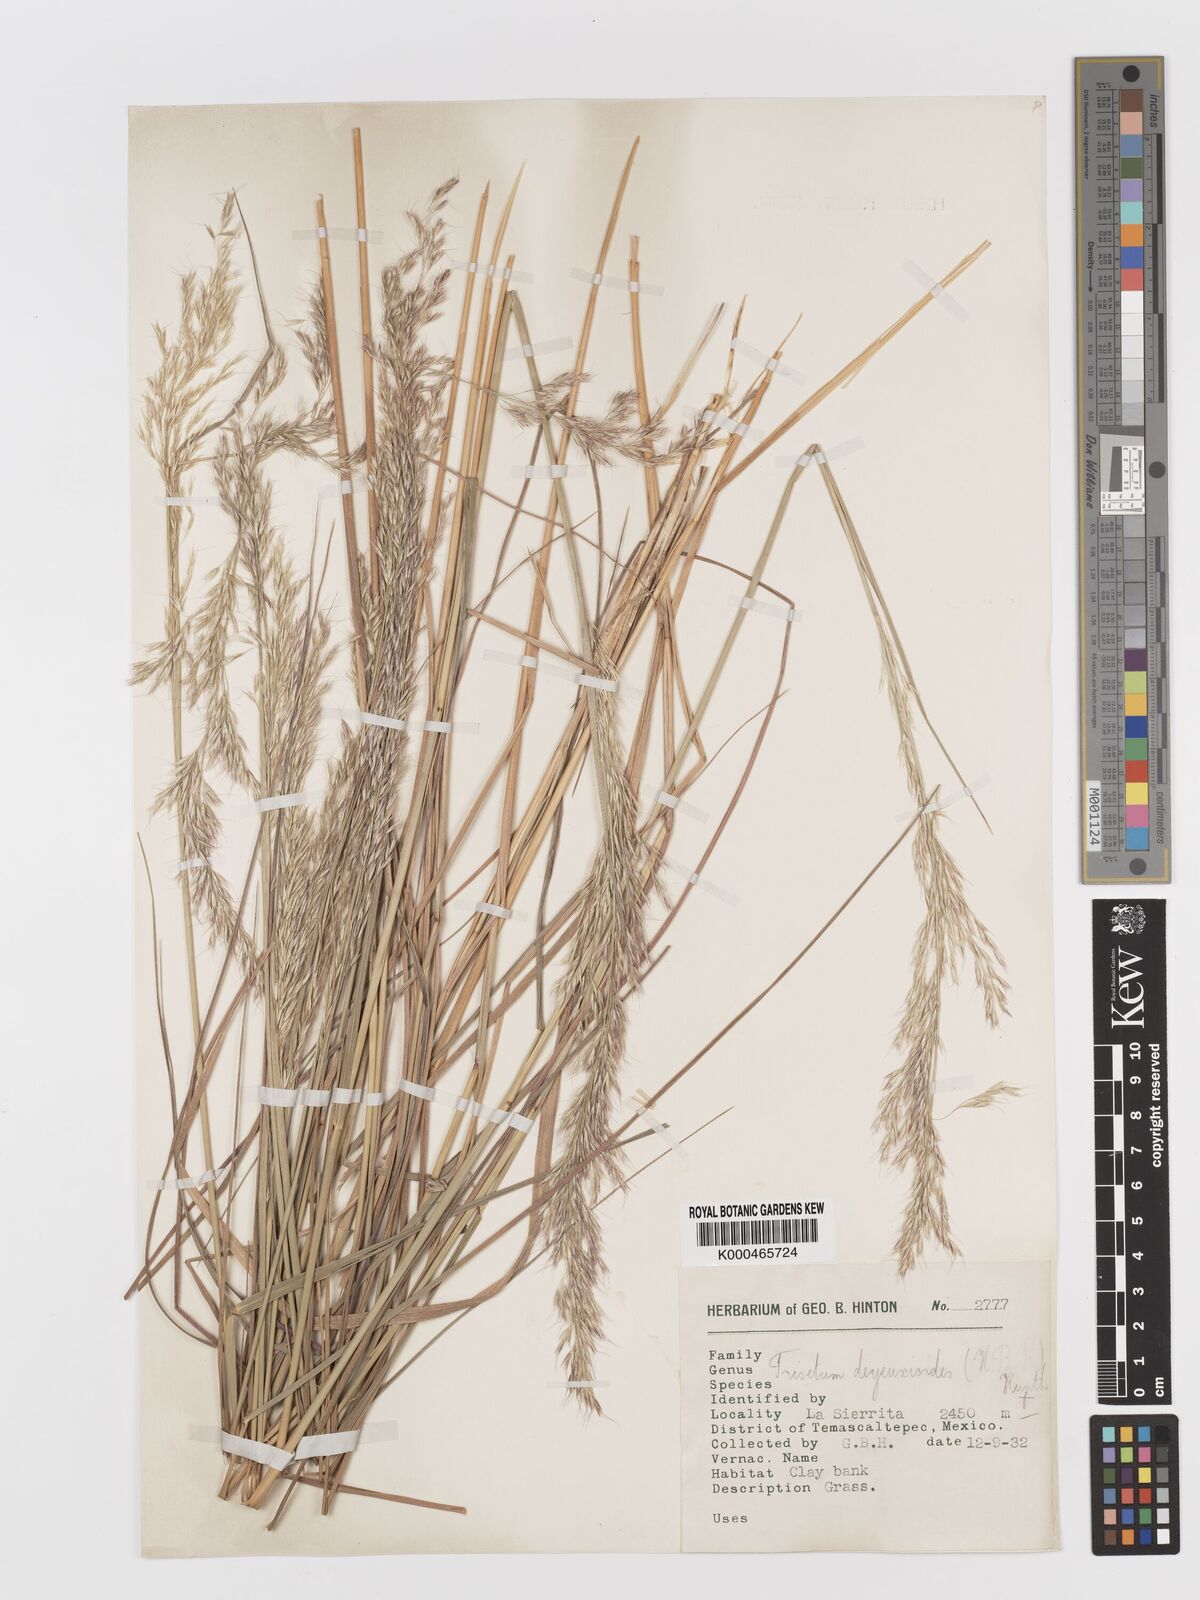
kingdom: Plantae
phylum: Tracheophyta
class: Liliopsida
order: Poales
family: Poaceae
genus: Peyritschia
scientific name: Peyritschia deyeuxioides
